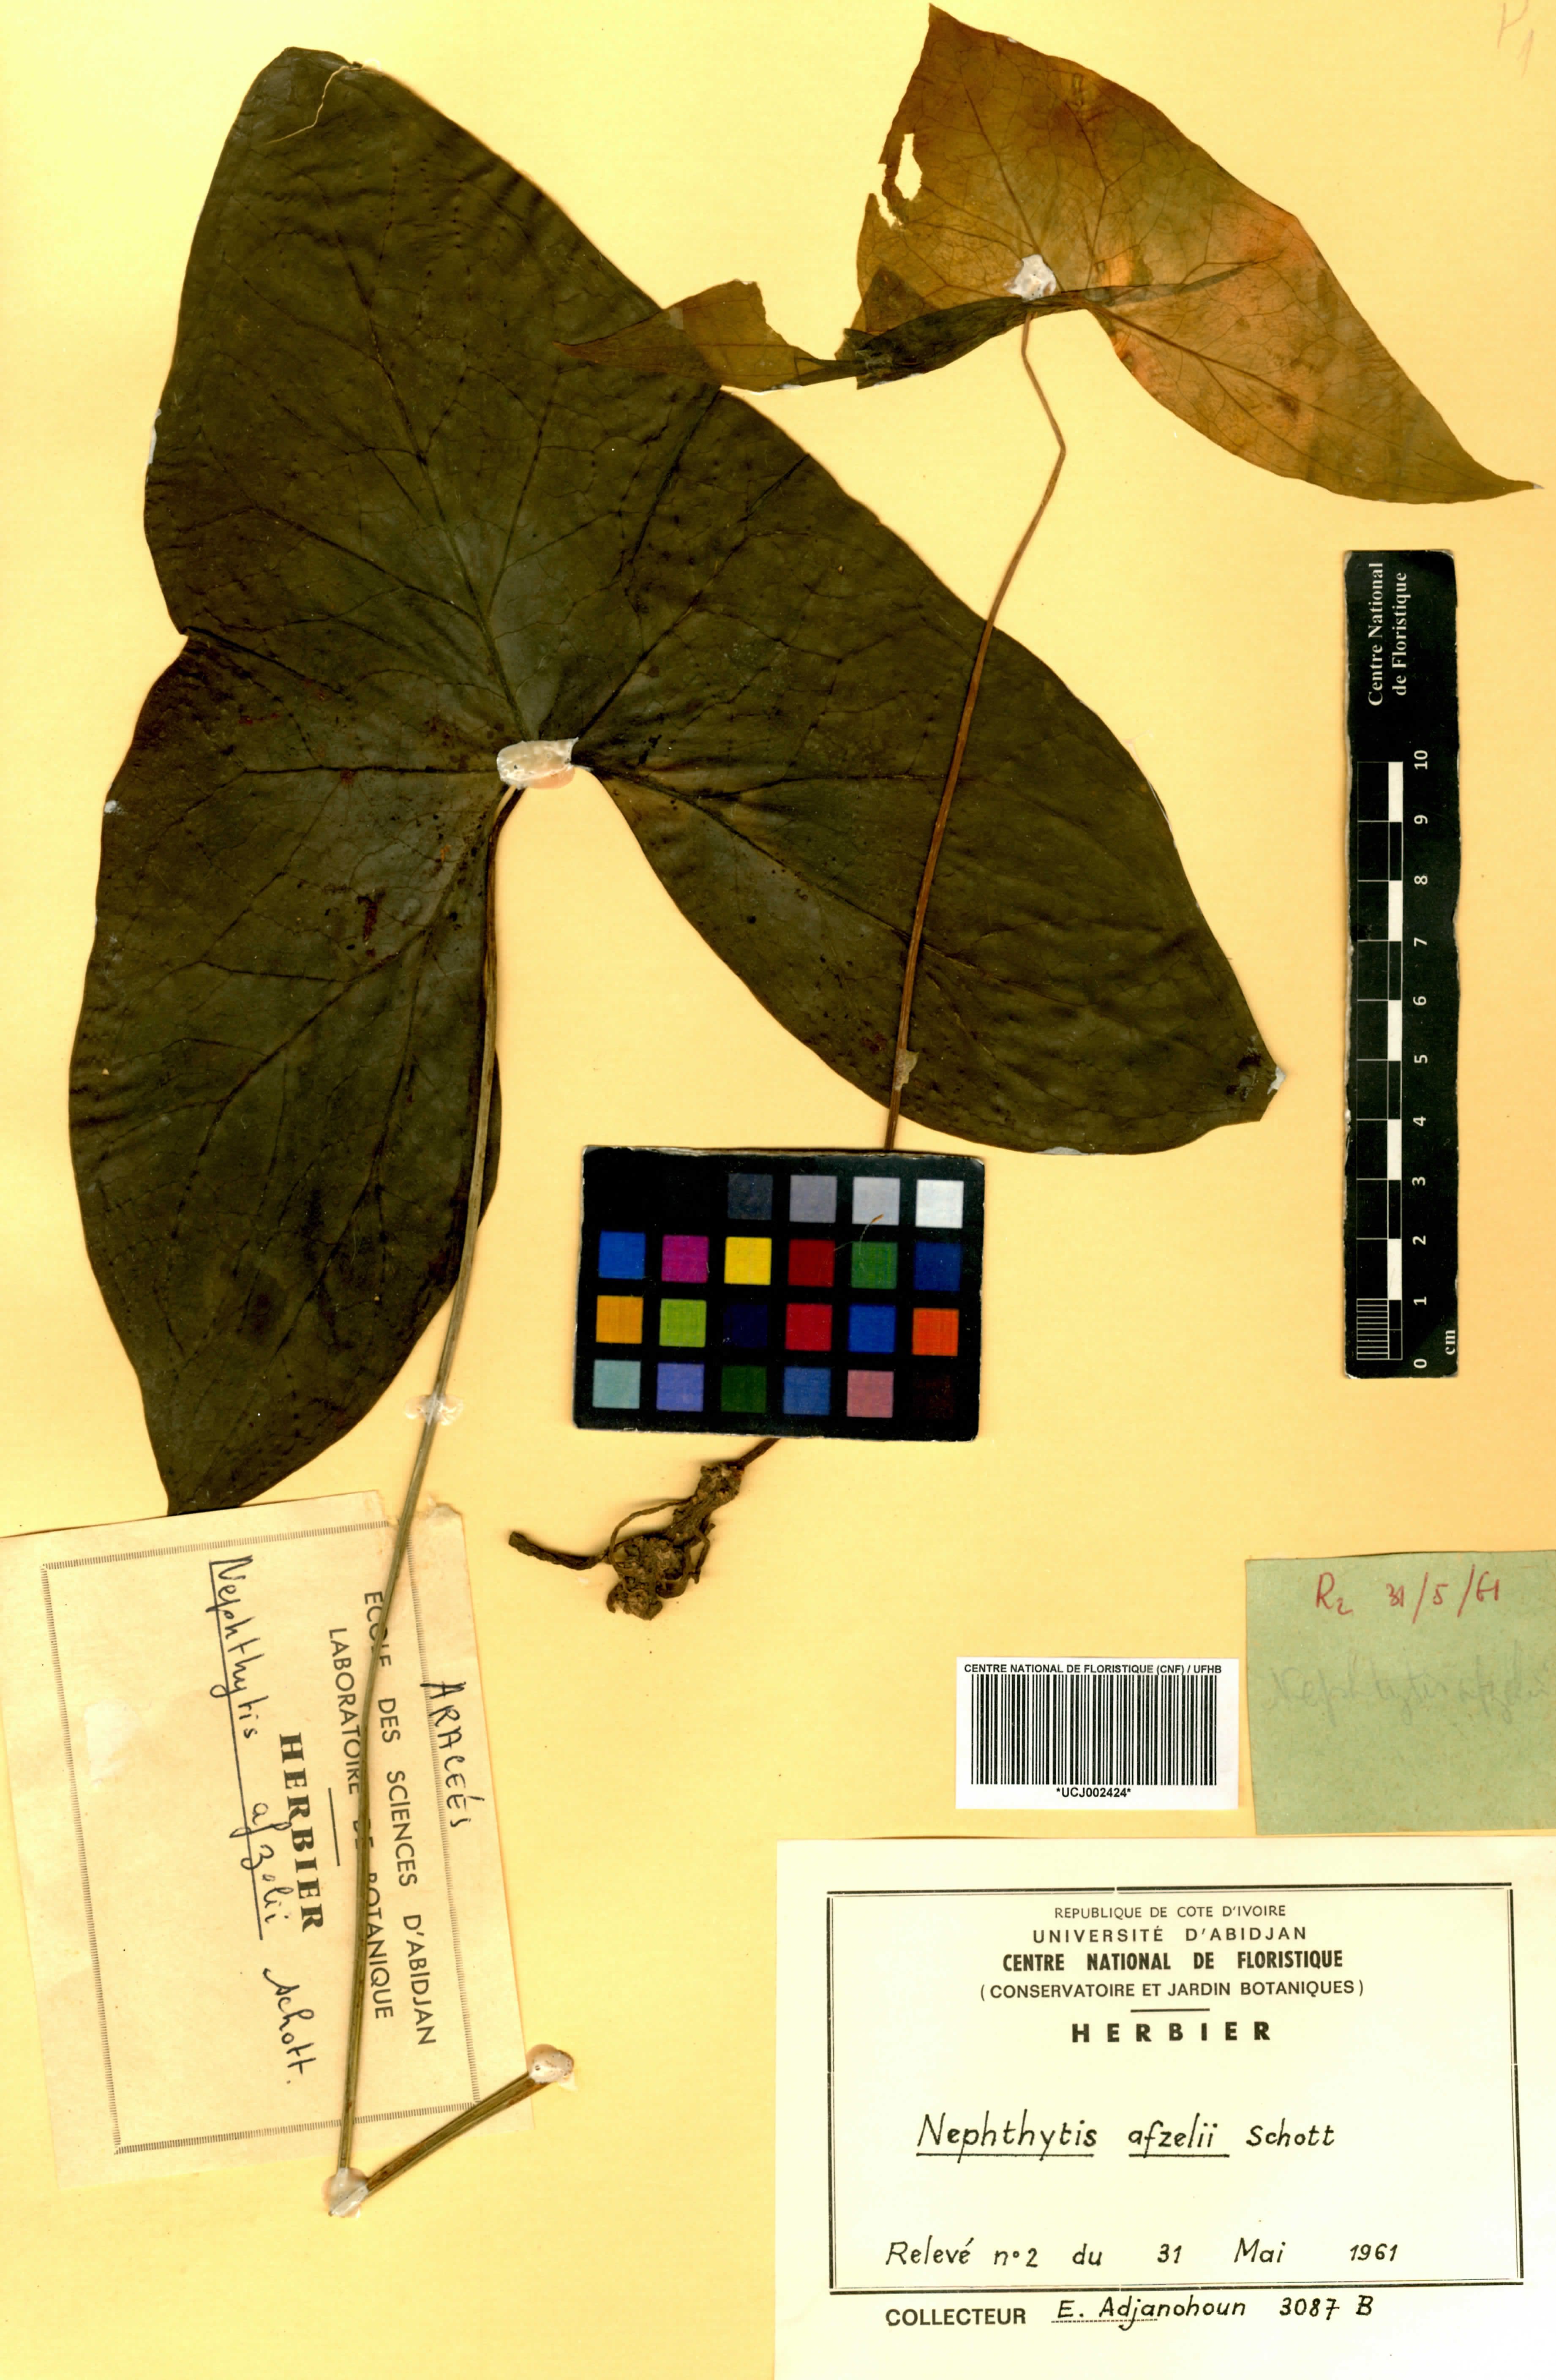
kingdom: Plantae
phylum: Tracheophyta
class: Liliopsida
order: Alismatales
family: Araceae
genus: Nephthytis
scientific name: Nephthytis afzelii
